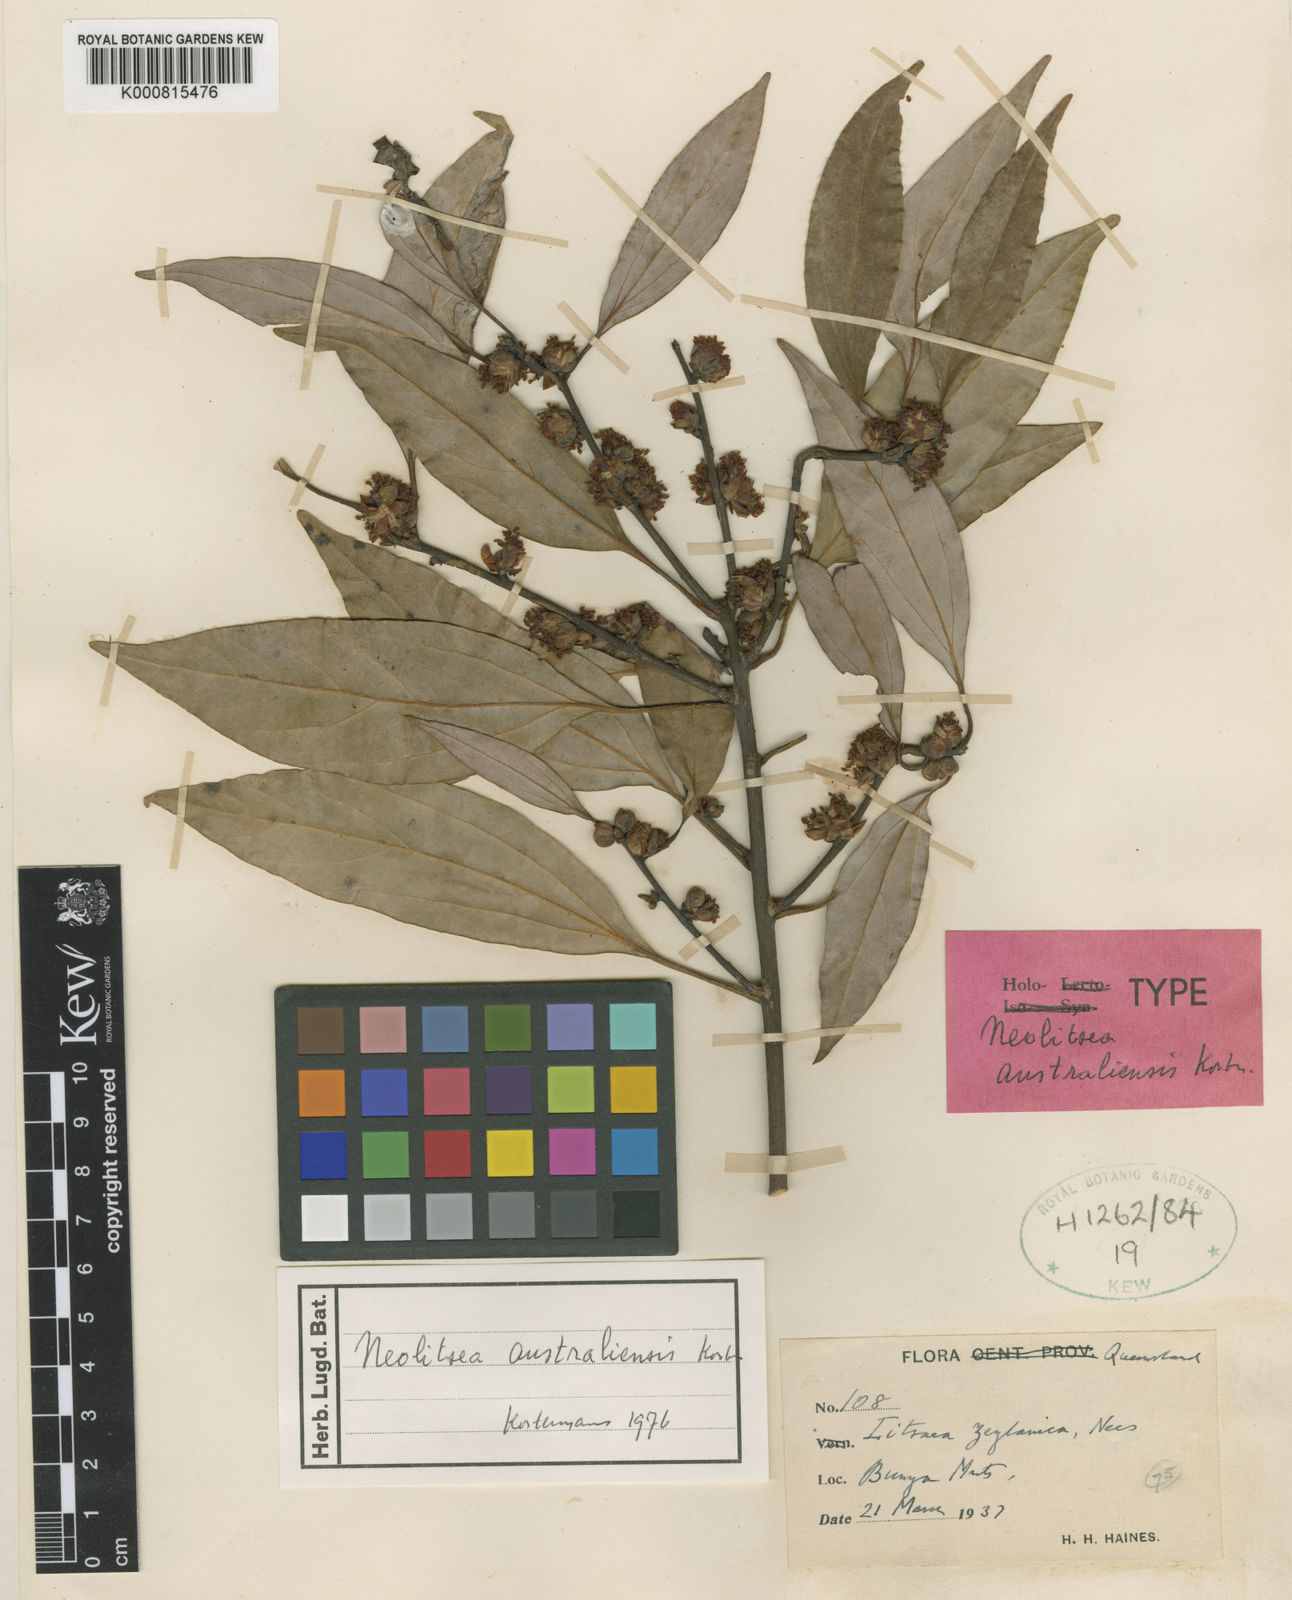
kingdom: Plantae
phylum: Tracheophyta
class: Magnoliopsida
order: Laurales
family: Lauraceae
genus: Neolitsea
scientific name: Neolitsea australiensis
